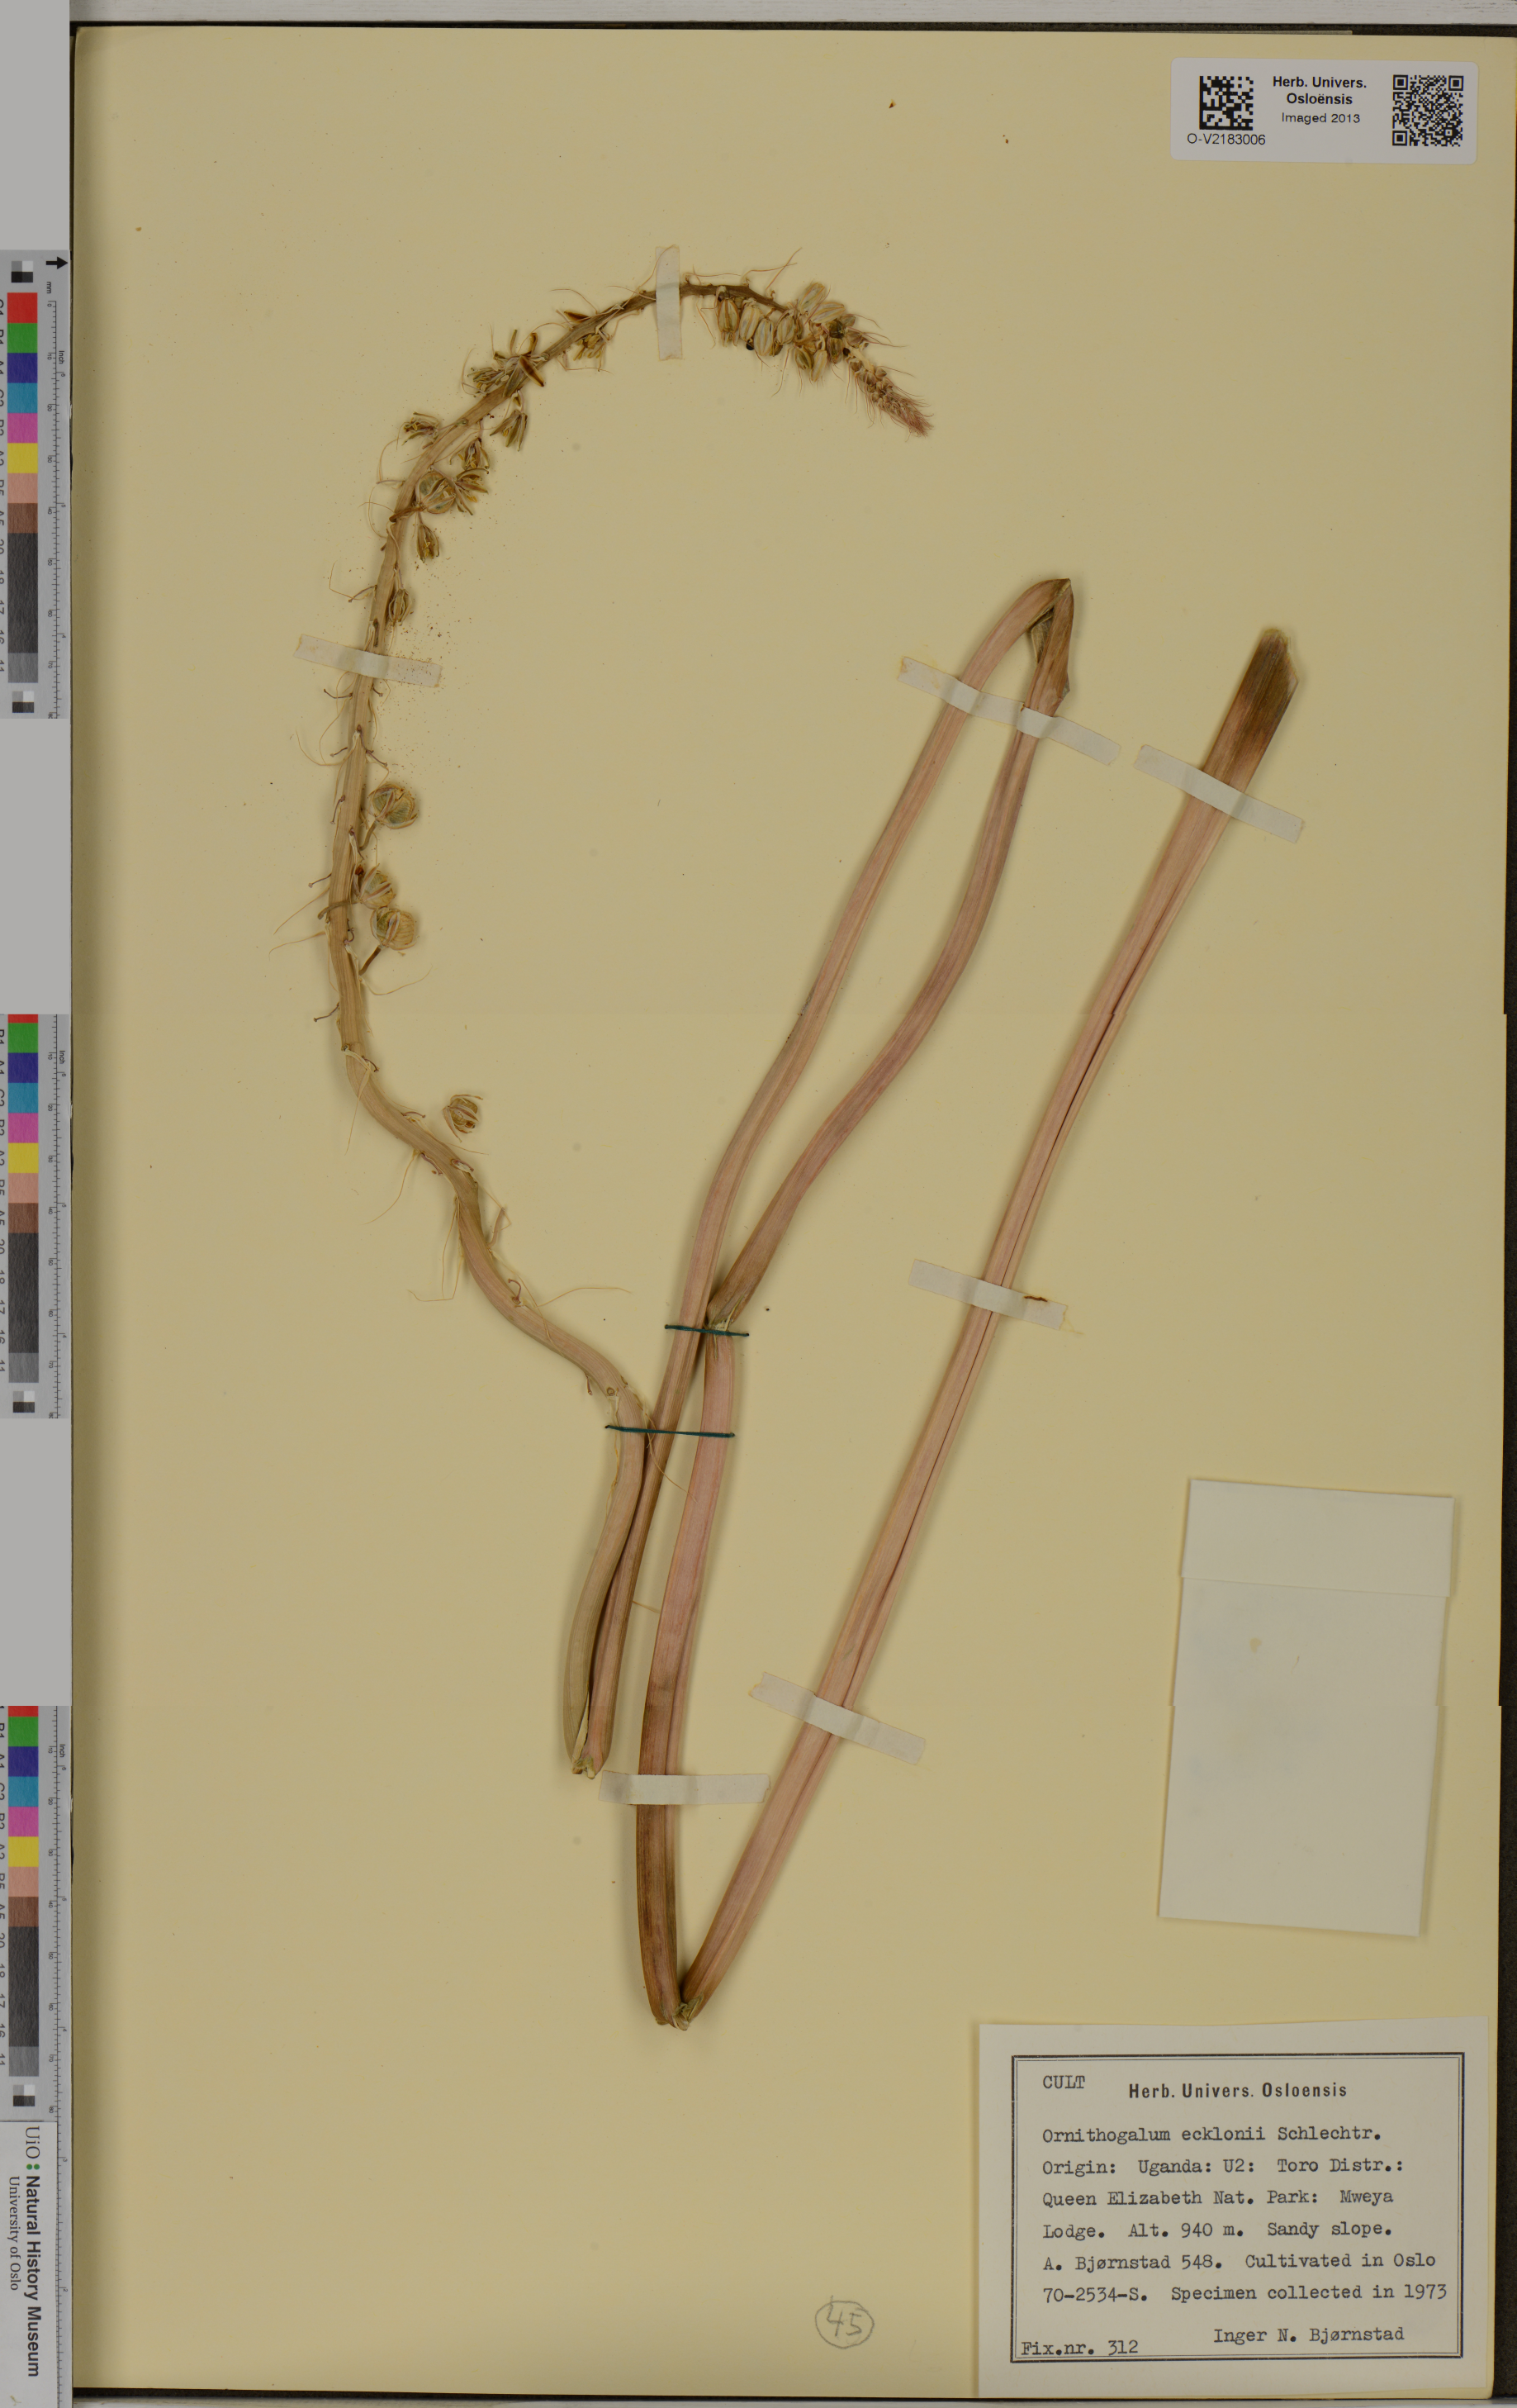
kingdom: Plantae
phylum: Tracheophyta
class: Liliopsida
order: Asparagales
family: Asparagaceae
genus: Albuca
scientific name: Albuca virens
